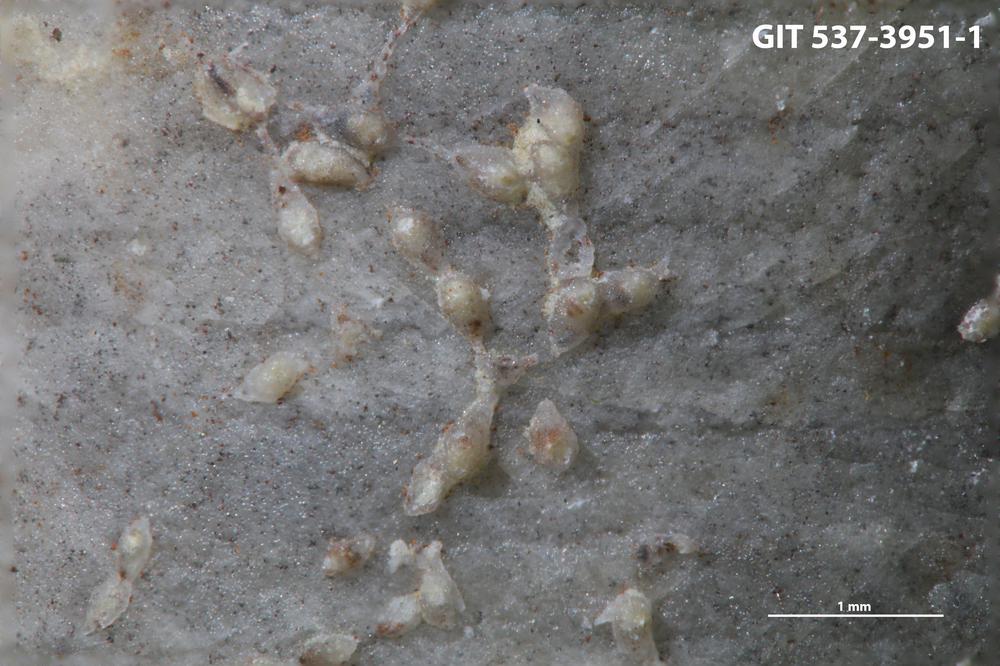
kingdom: Animalia
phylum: Bryozoa
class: Stenolaemata
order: Cyclostomatida
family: Corynotrypidae
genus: Corynotrypa
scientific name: Corynotrypa
